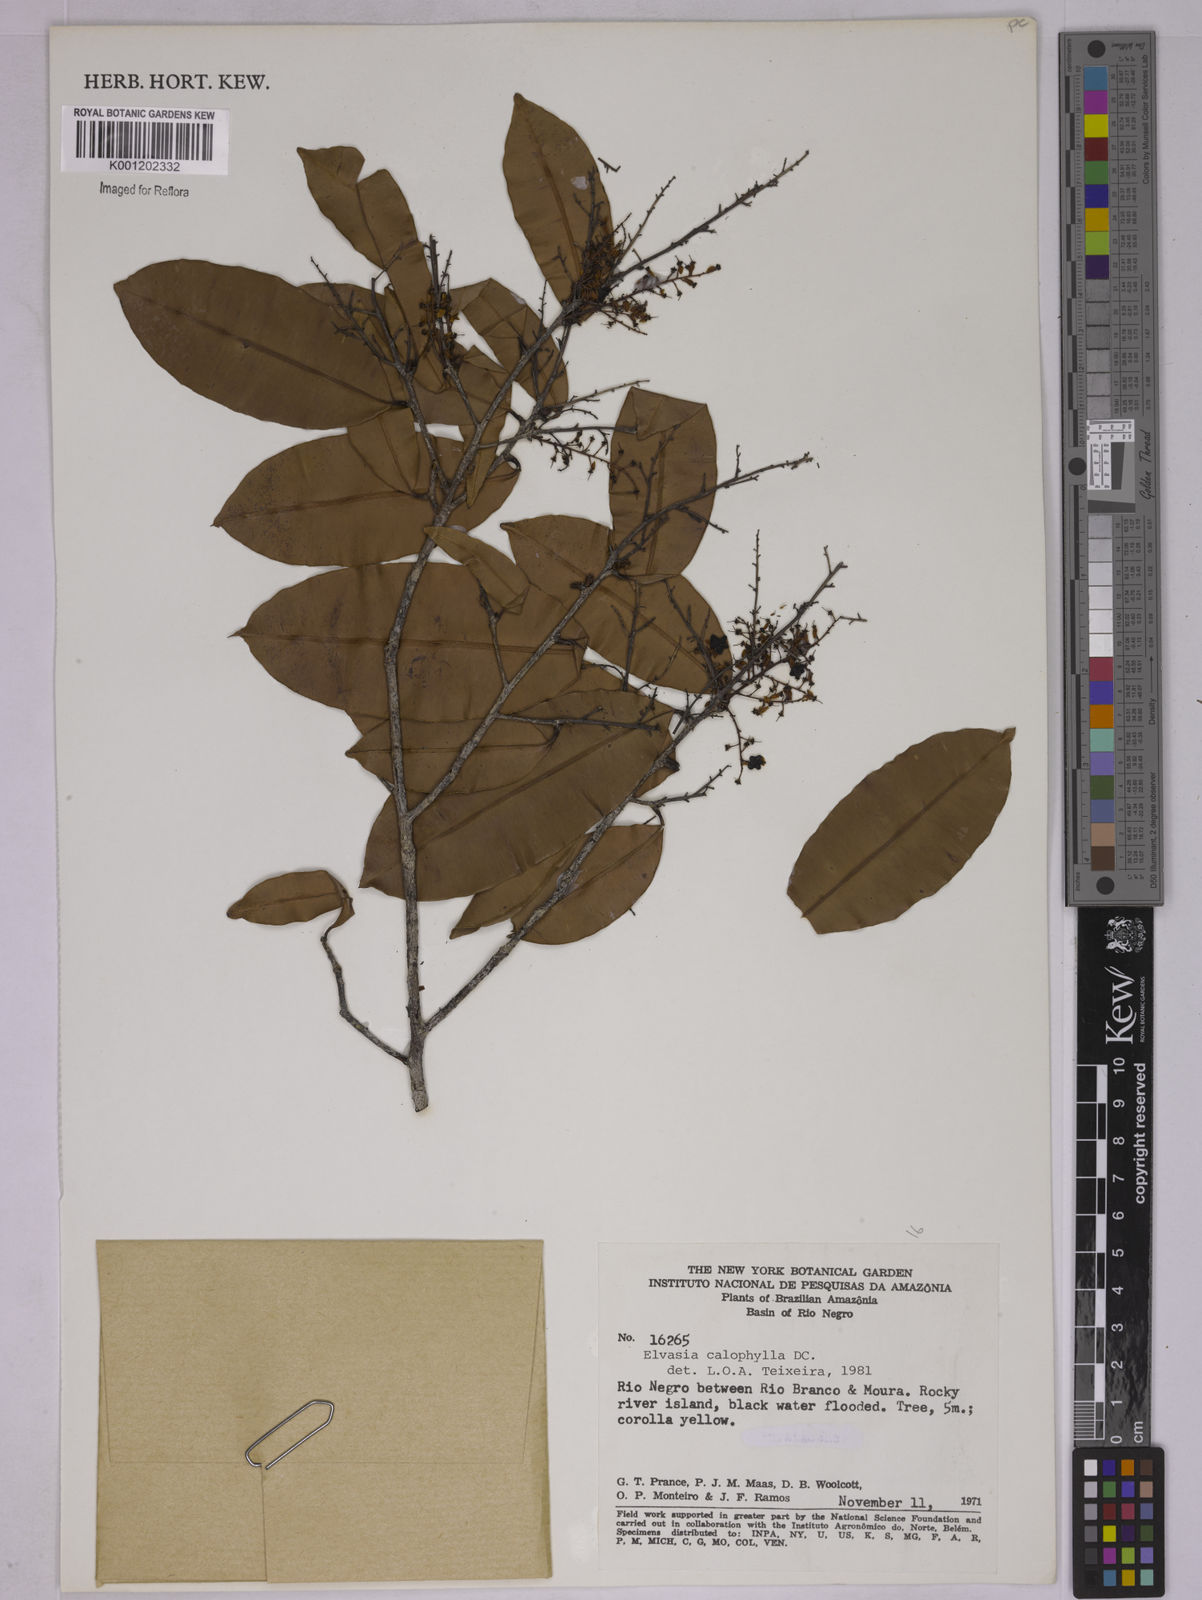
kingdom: Plantae
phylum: Tracheophyta
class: Magnoliopsida
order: Malpighiales
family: Ochnaceae
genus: Elvasia
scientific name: Elvasia calophyllea
